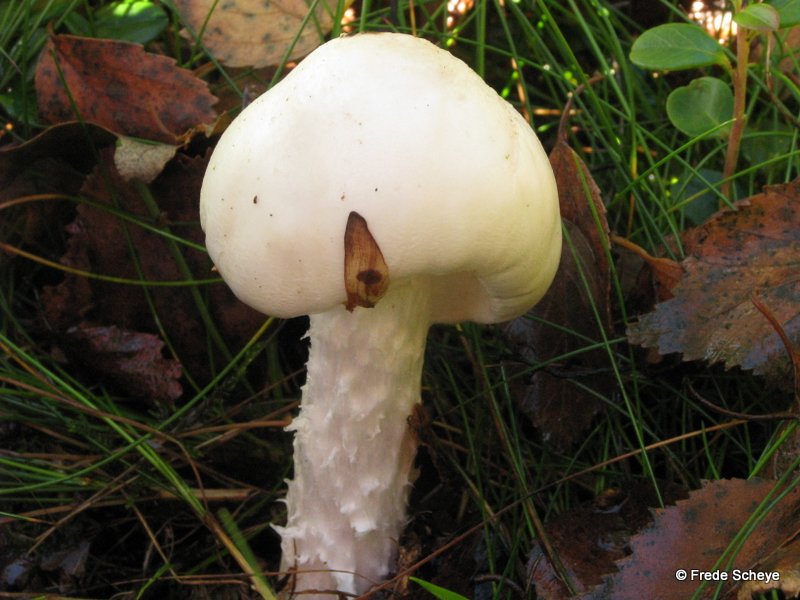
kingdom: Fungi
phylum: Basidiomycota
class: Agaricomycetes
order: Agaricales
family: Amanitaceae
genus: Amanita
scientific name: Amanita virosa
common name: snehvid fluesvamp
